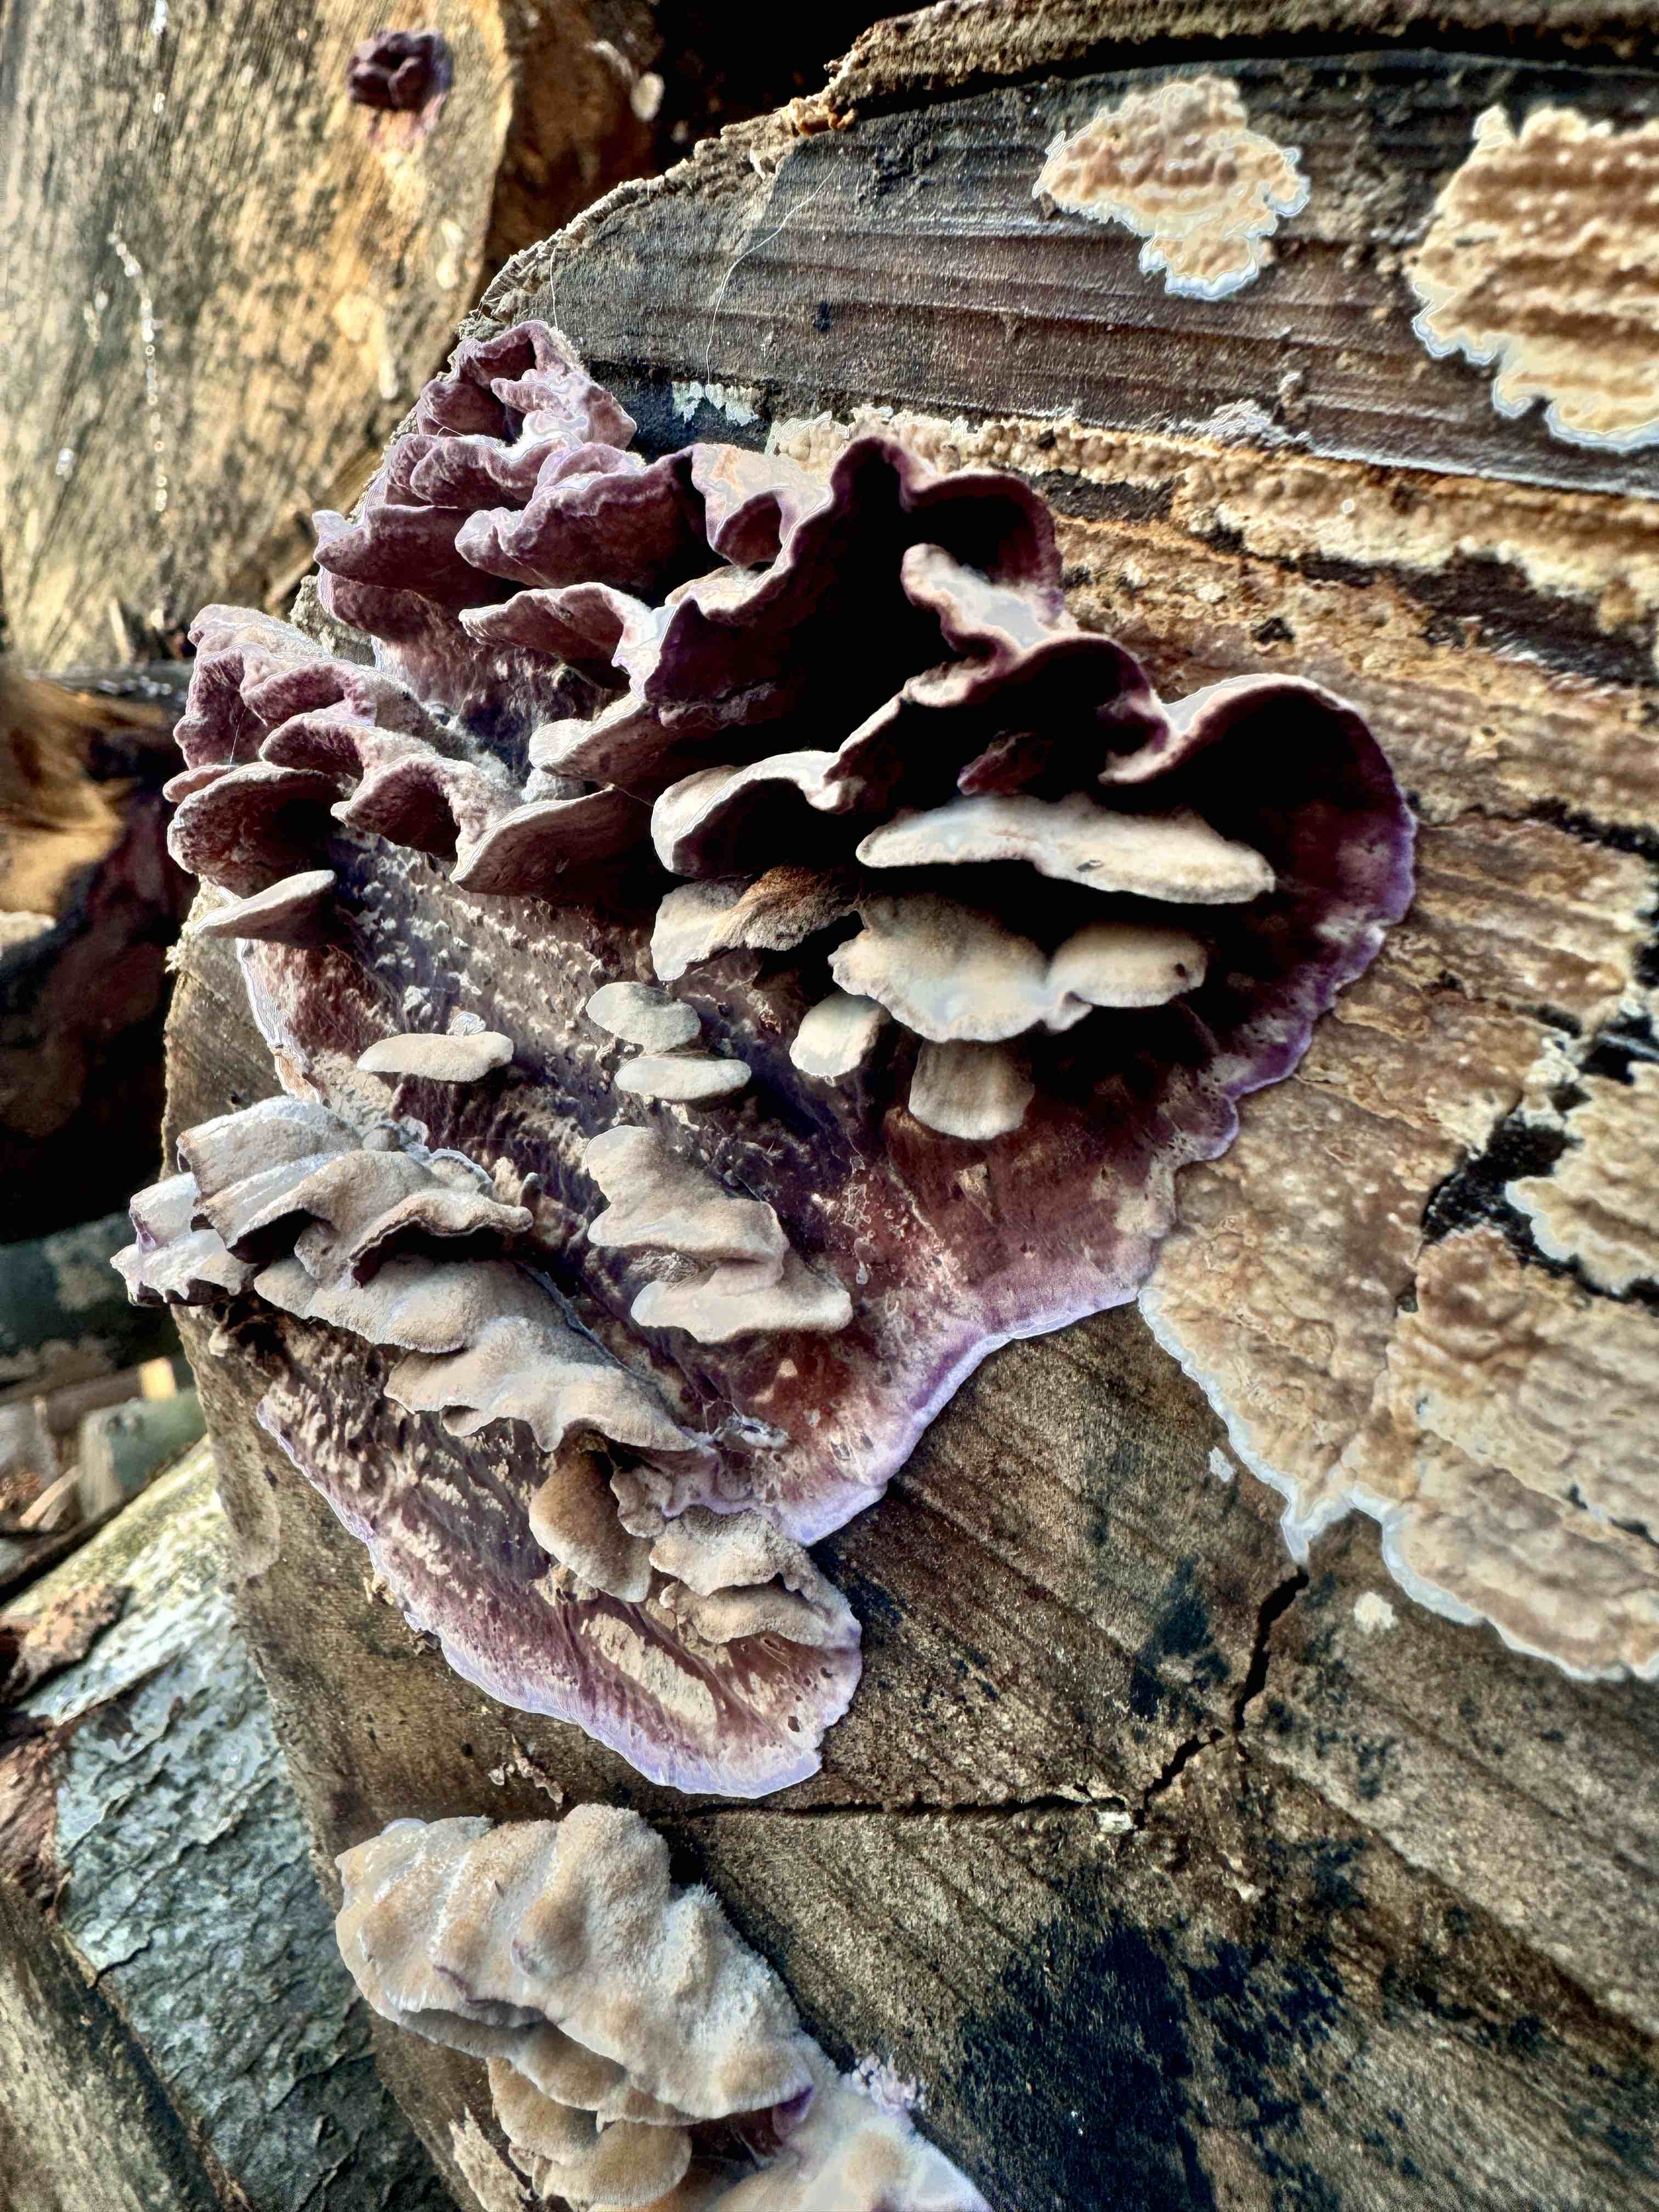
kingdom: Fungi
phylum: Basidiomycota
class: Agaricomycetes
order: Agaricales
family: Cyphellaceae
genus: Chondrostereum
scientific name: Chondrostereum purpureum
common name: purpurlædersvamp
